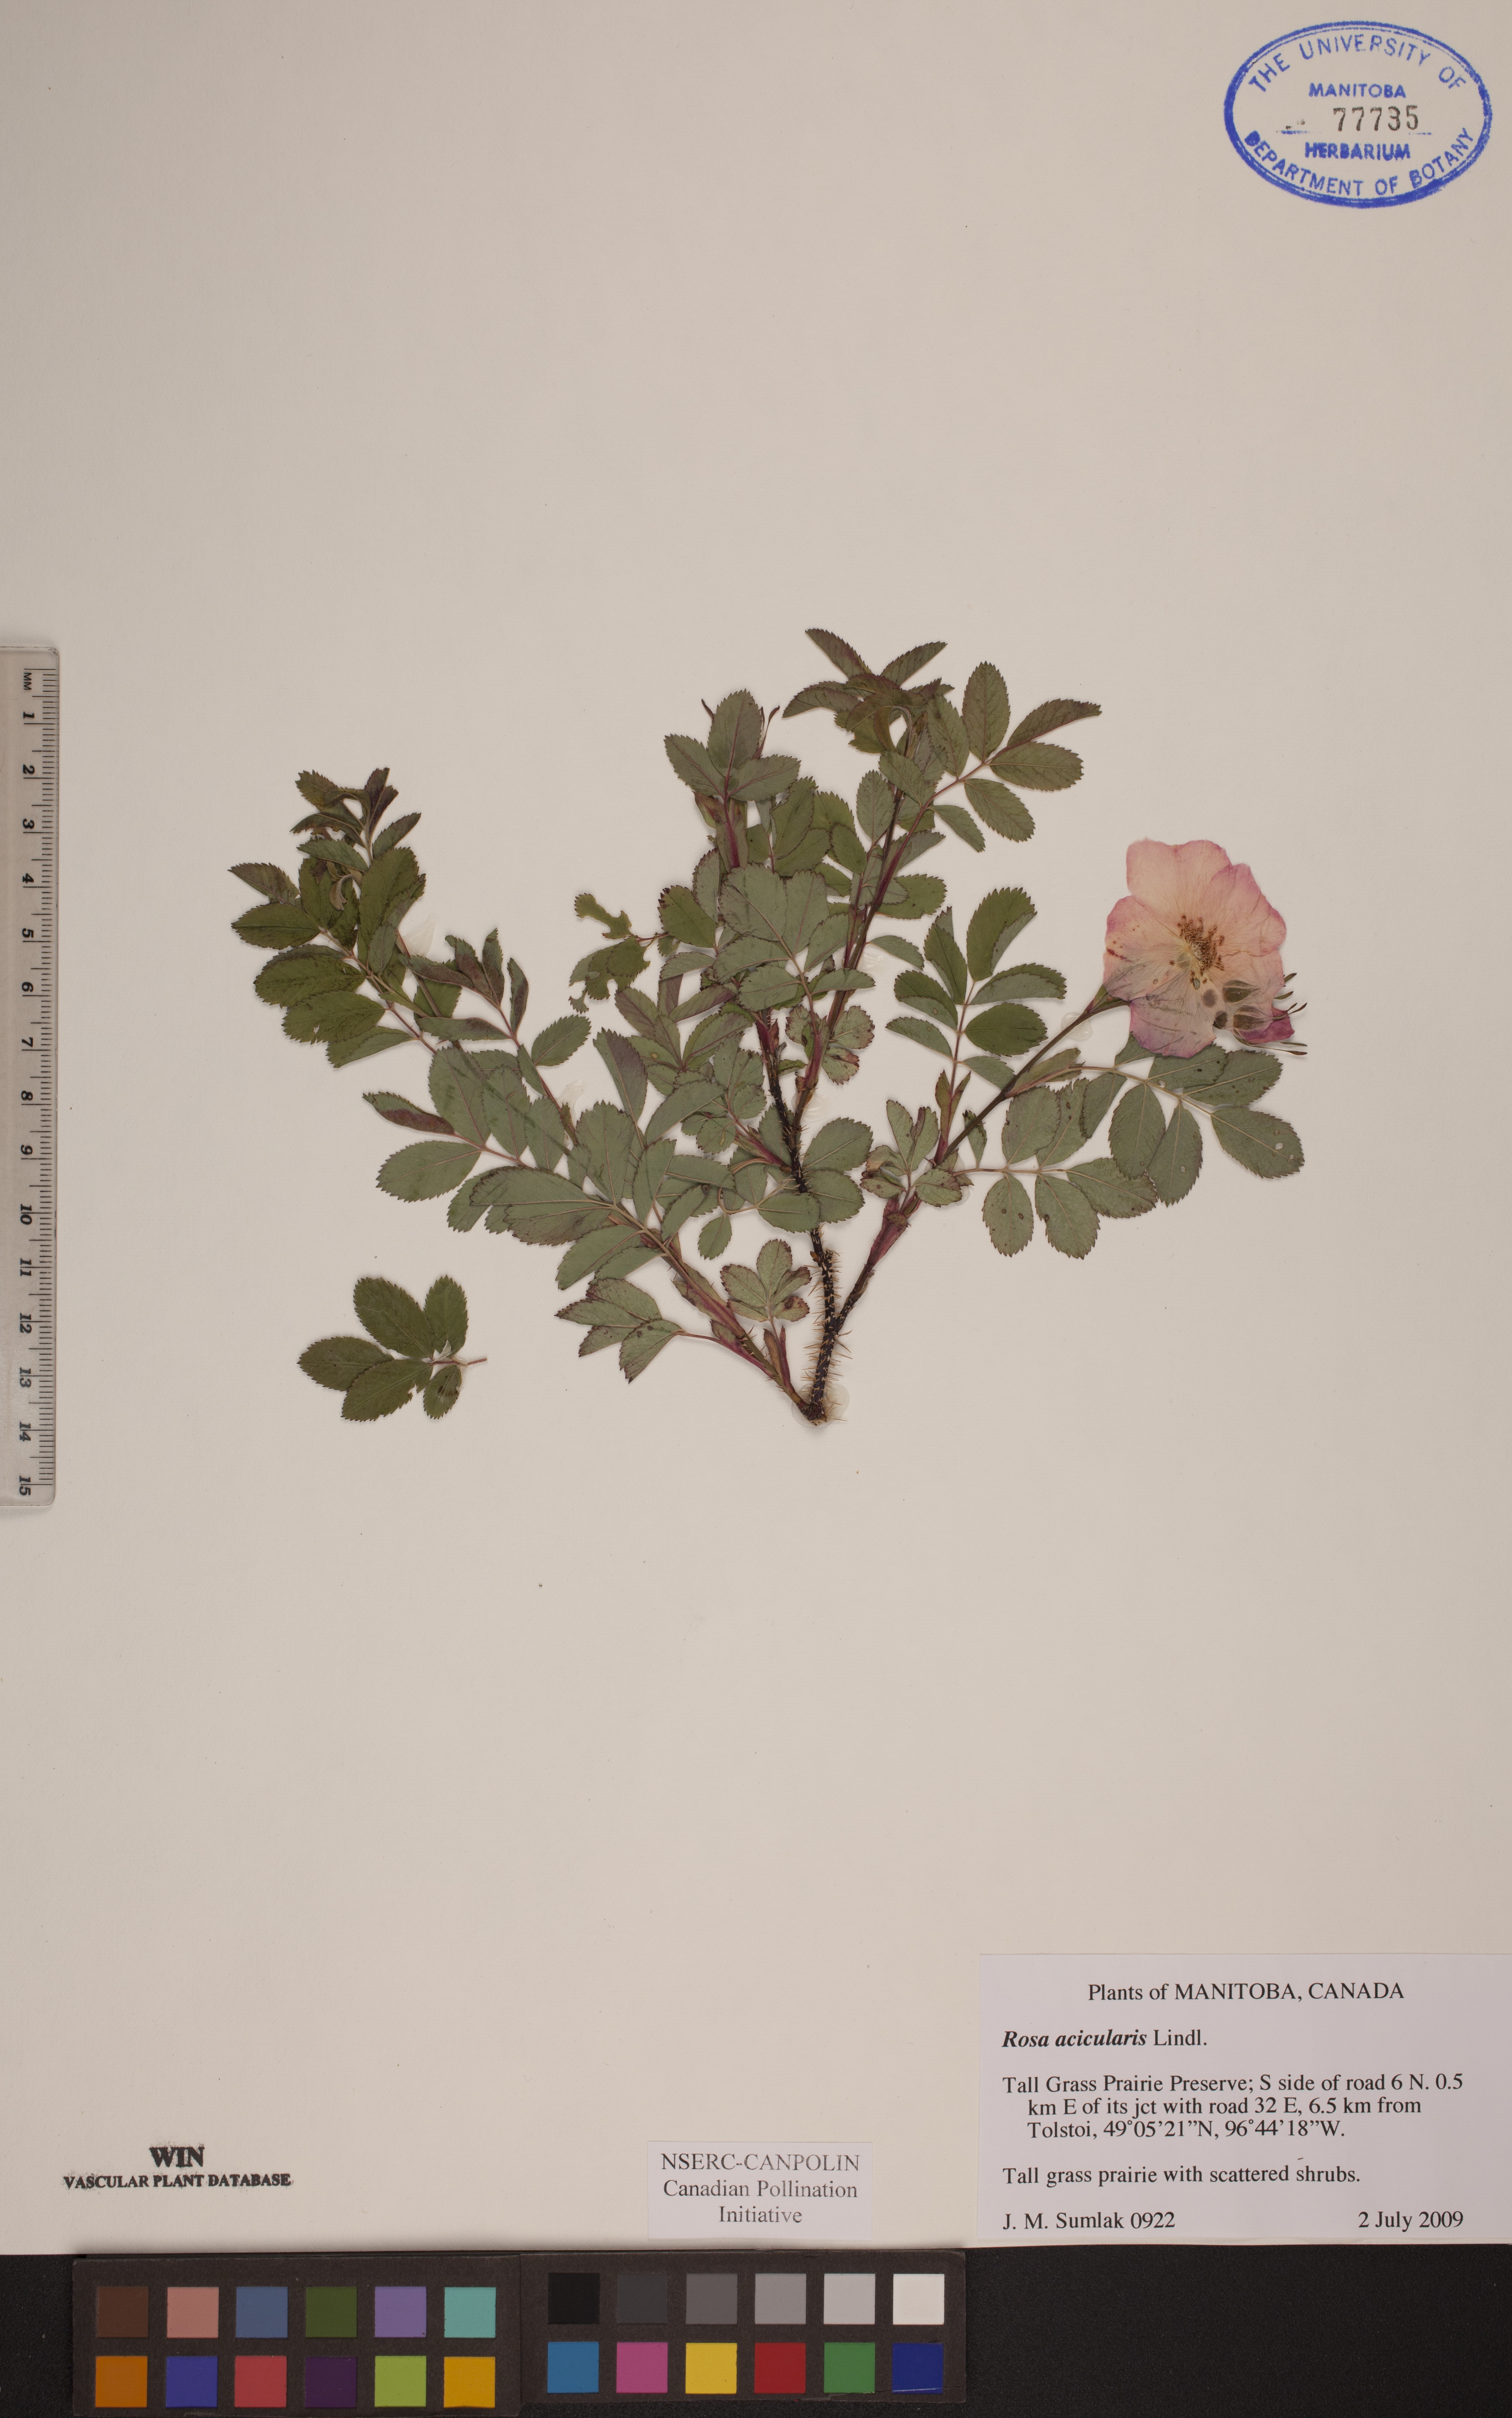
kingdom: Plantae
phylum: Tracheophyta
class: Magnoliopsida
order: Rosales
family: Rosaceae
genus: Rosa
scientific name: Rosa acicularis
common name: Prickly rose
